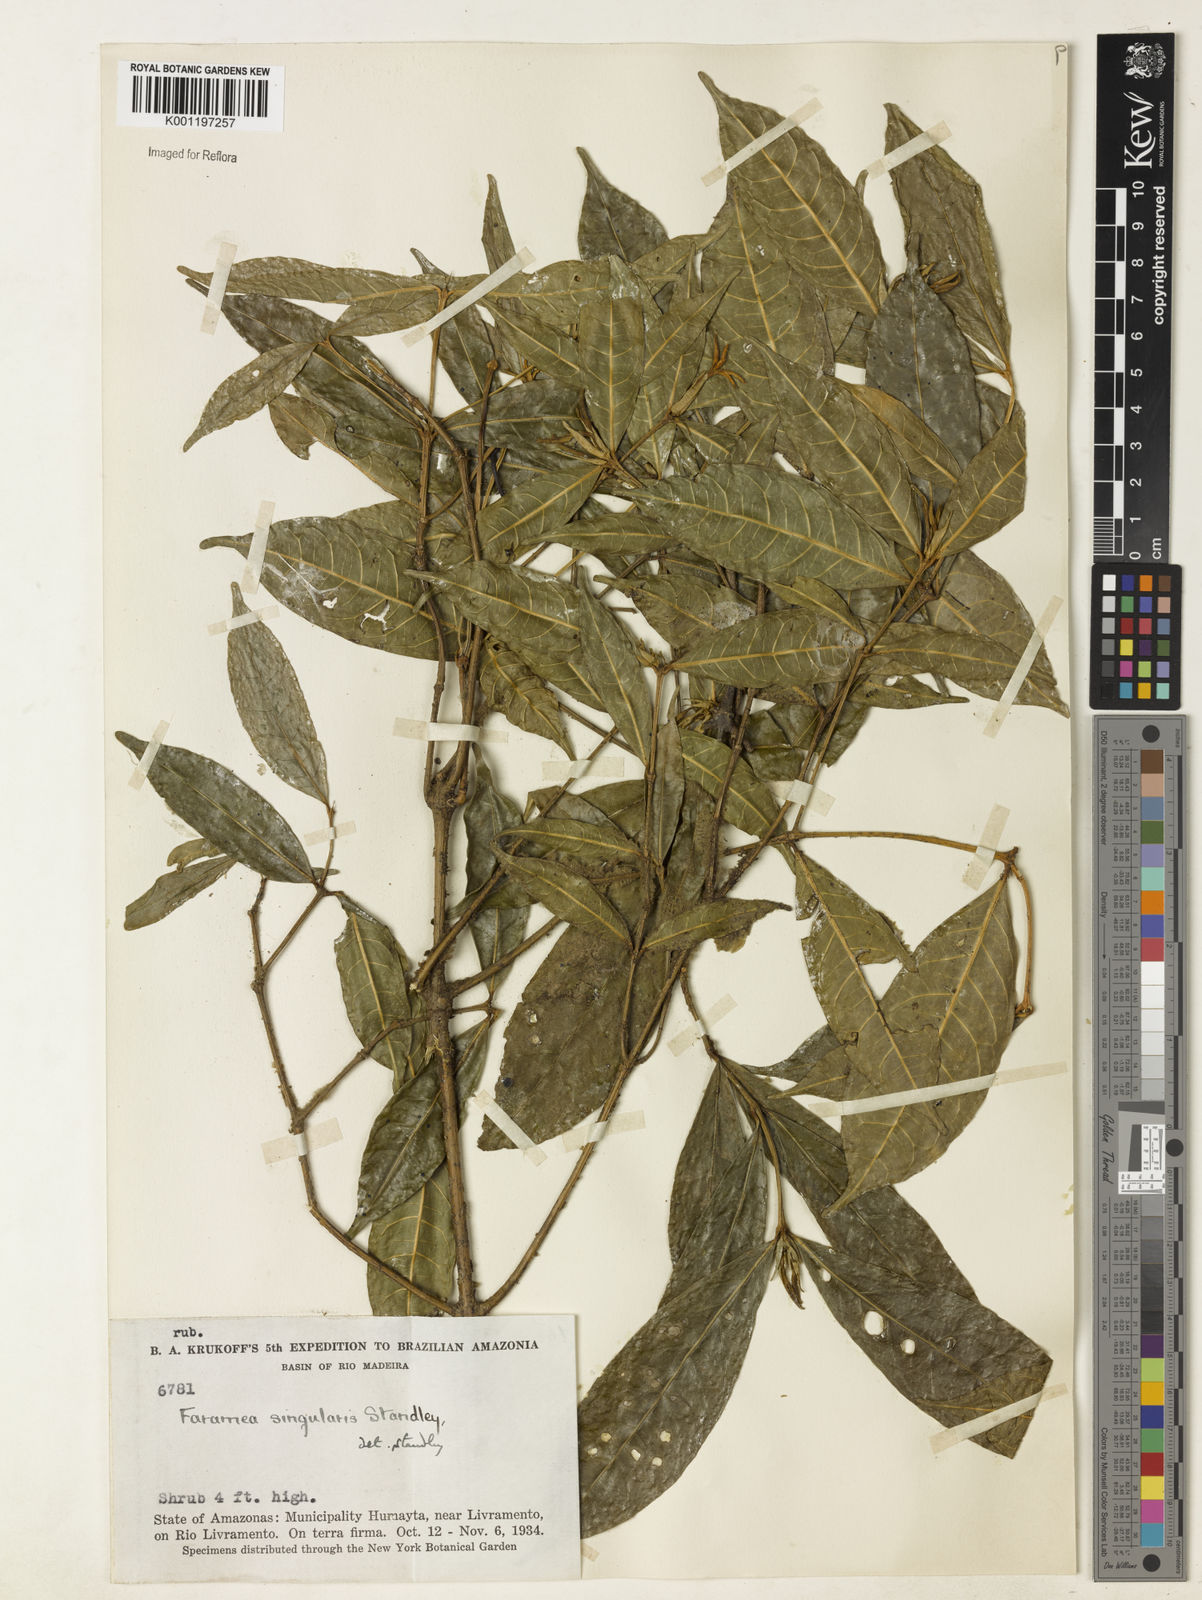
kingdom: Plantae
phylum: Tracheophyta
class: Magnoliopsida
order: Gentianales
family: Rubiaceae
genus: Faramea
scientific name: Faramea singularis
